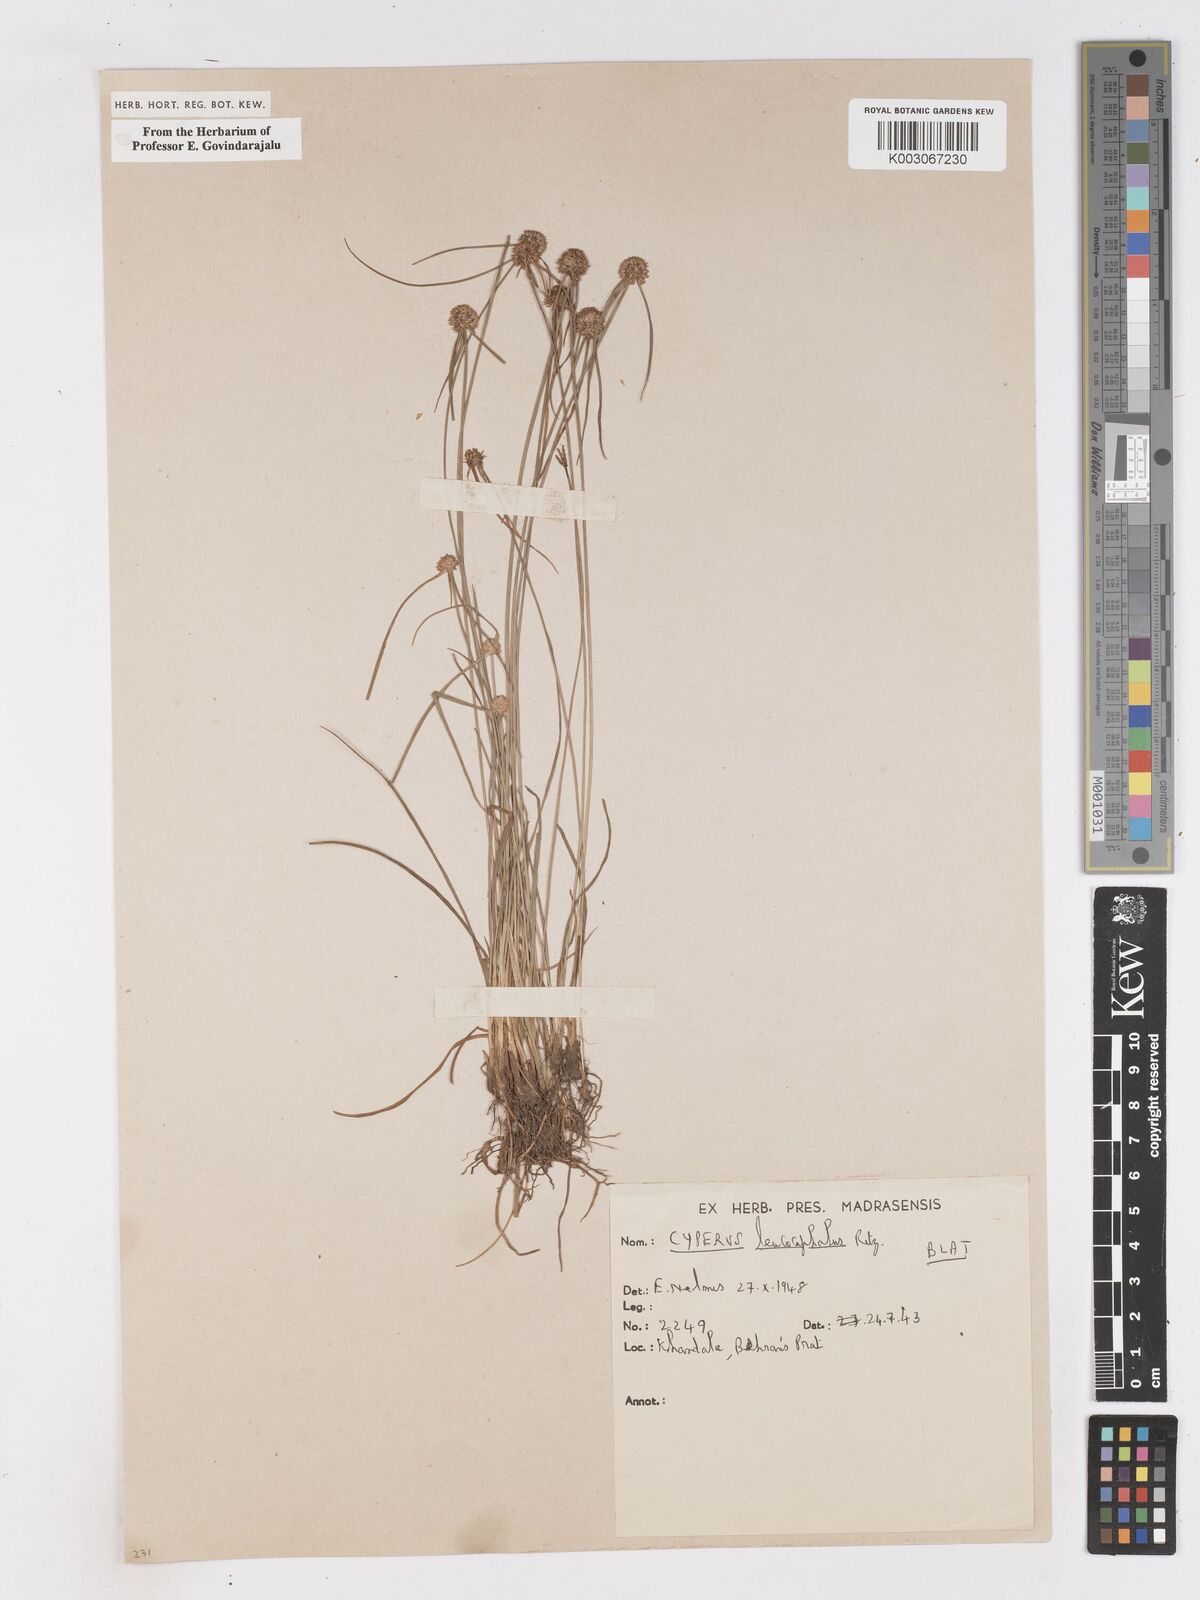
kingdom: Plantae
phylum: Tracheophyta
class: Liliopsida
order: Poales
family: Cyperaceae
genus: Cyperus
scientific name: Cyperus leucocephalus
